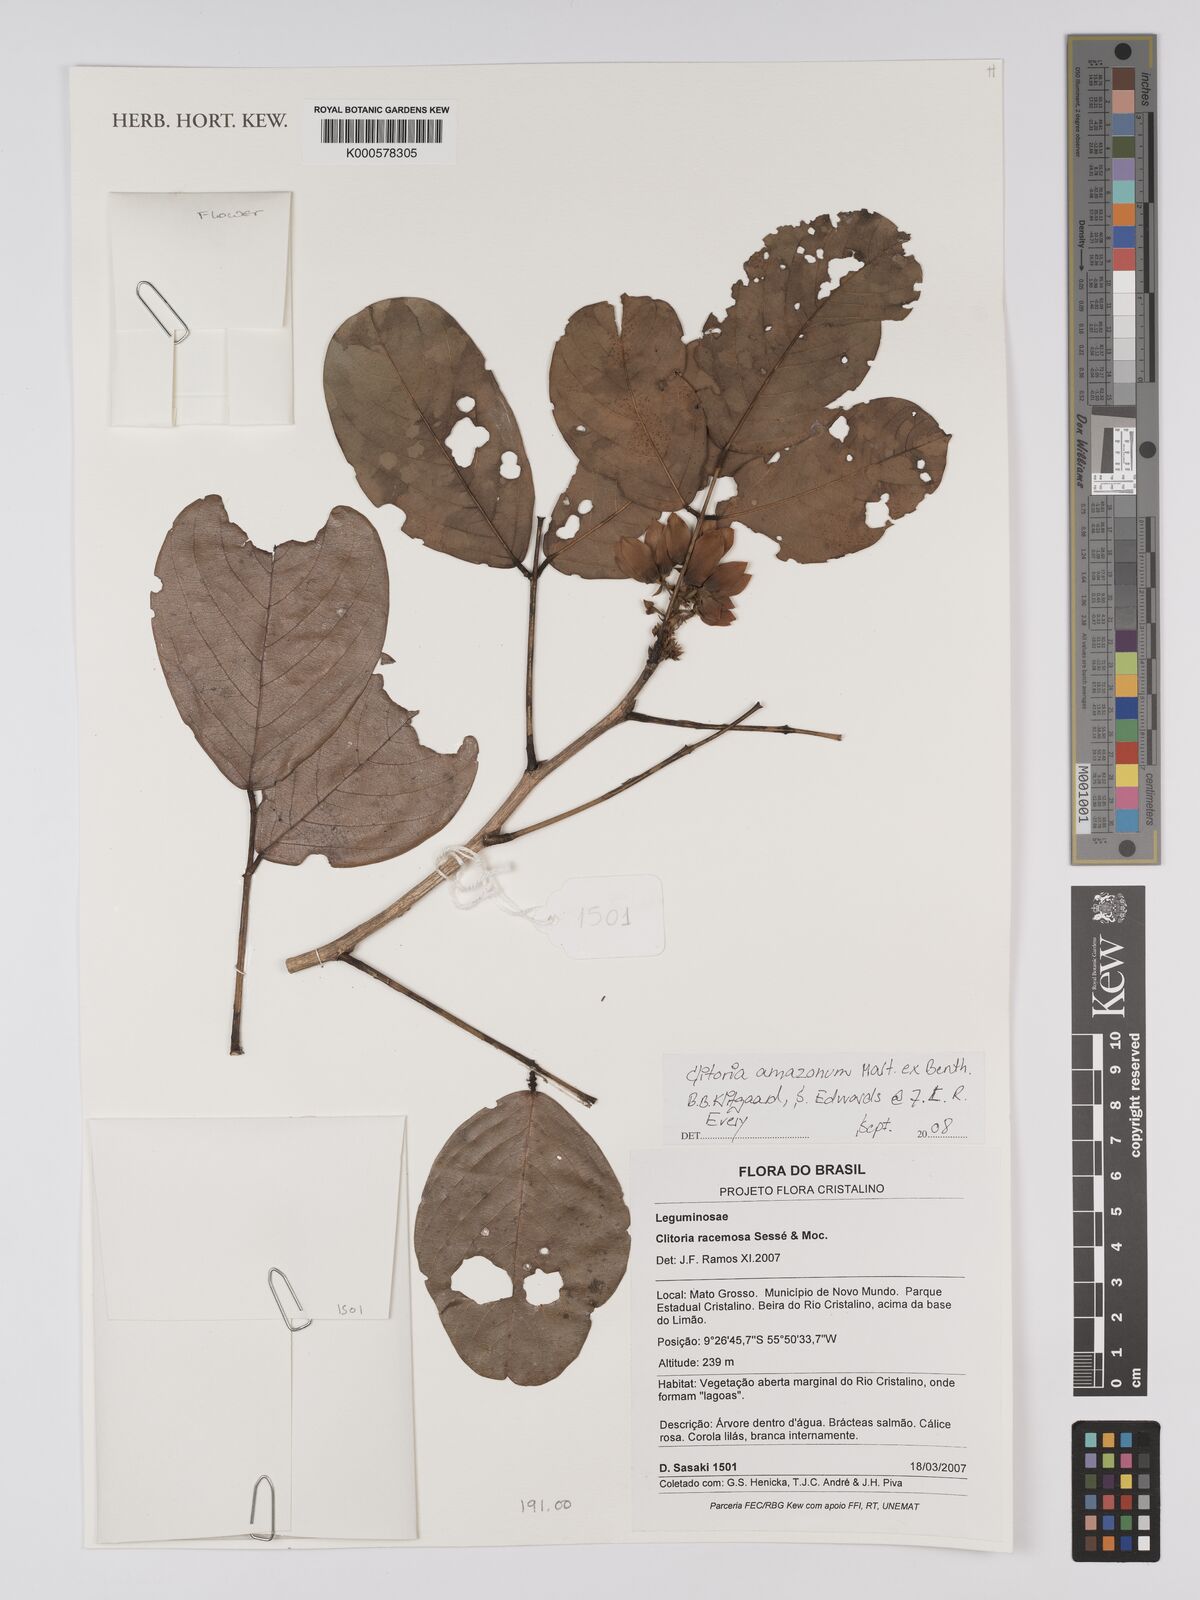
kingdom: Plantae
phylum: Tracheophyta
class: Magnoliopsida
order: Fabales
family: Fabaceae
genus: Clitoria
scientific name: Clitoria amazonum
